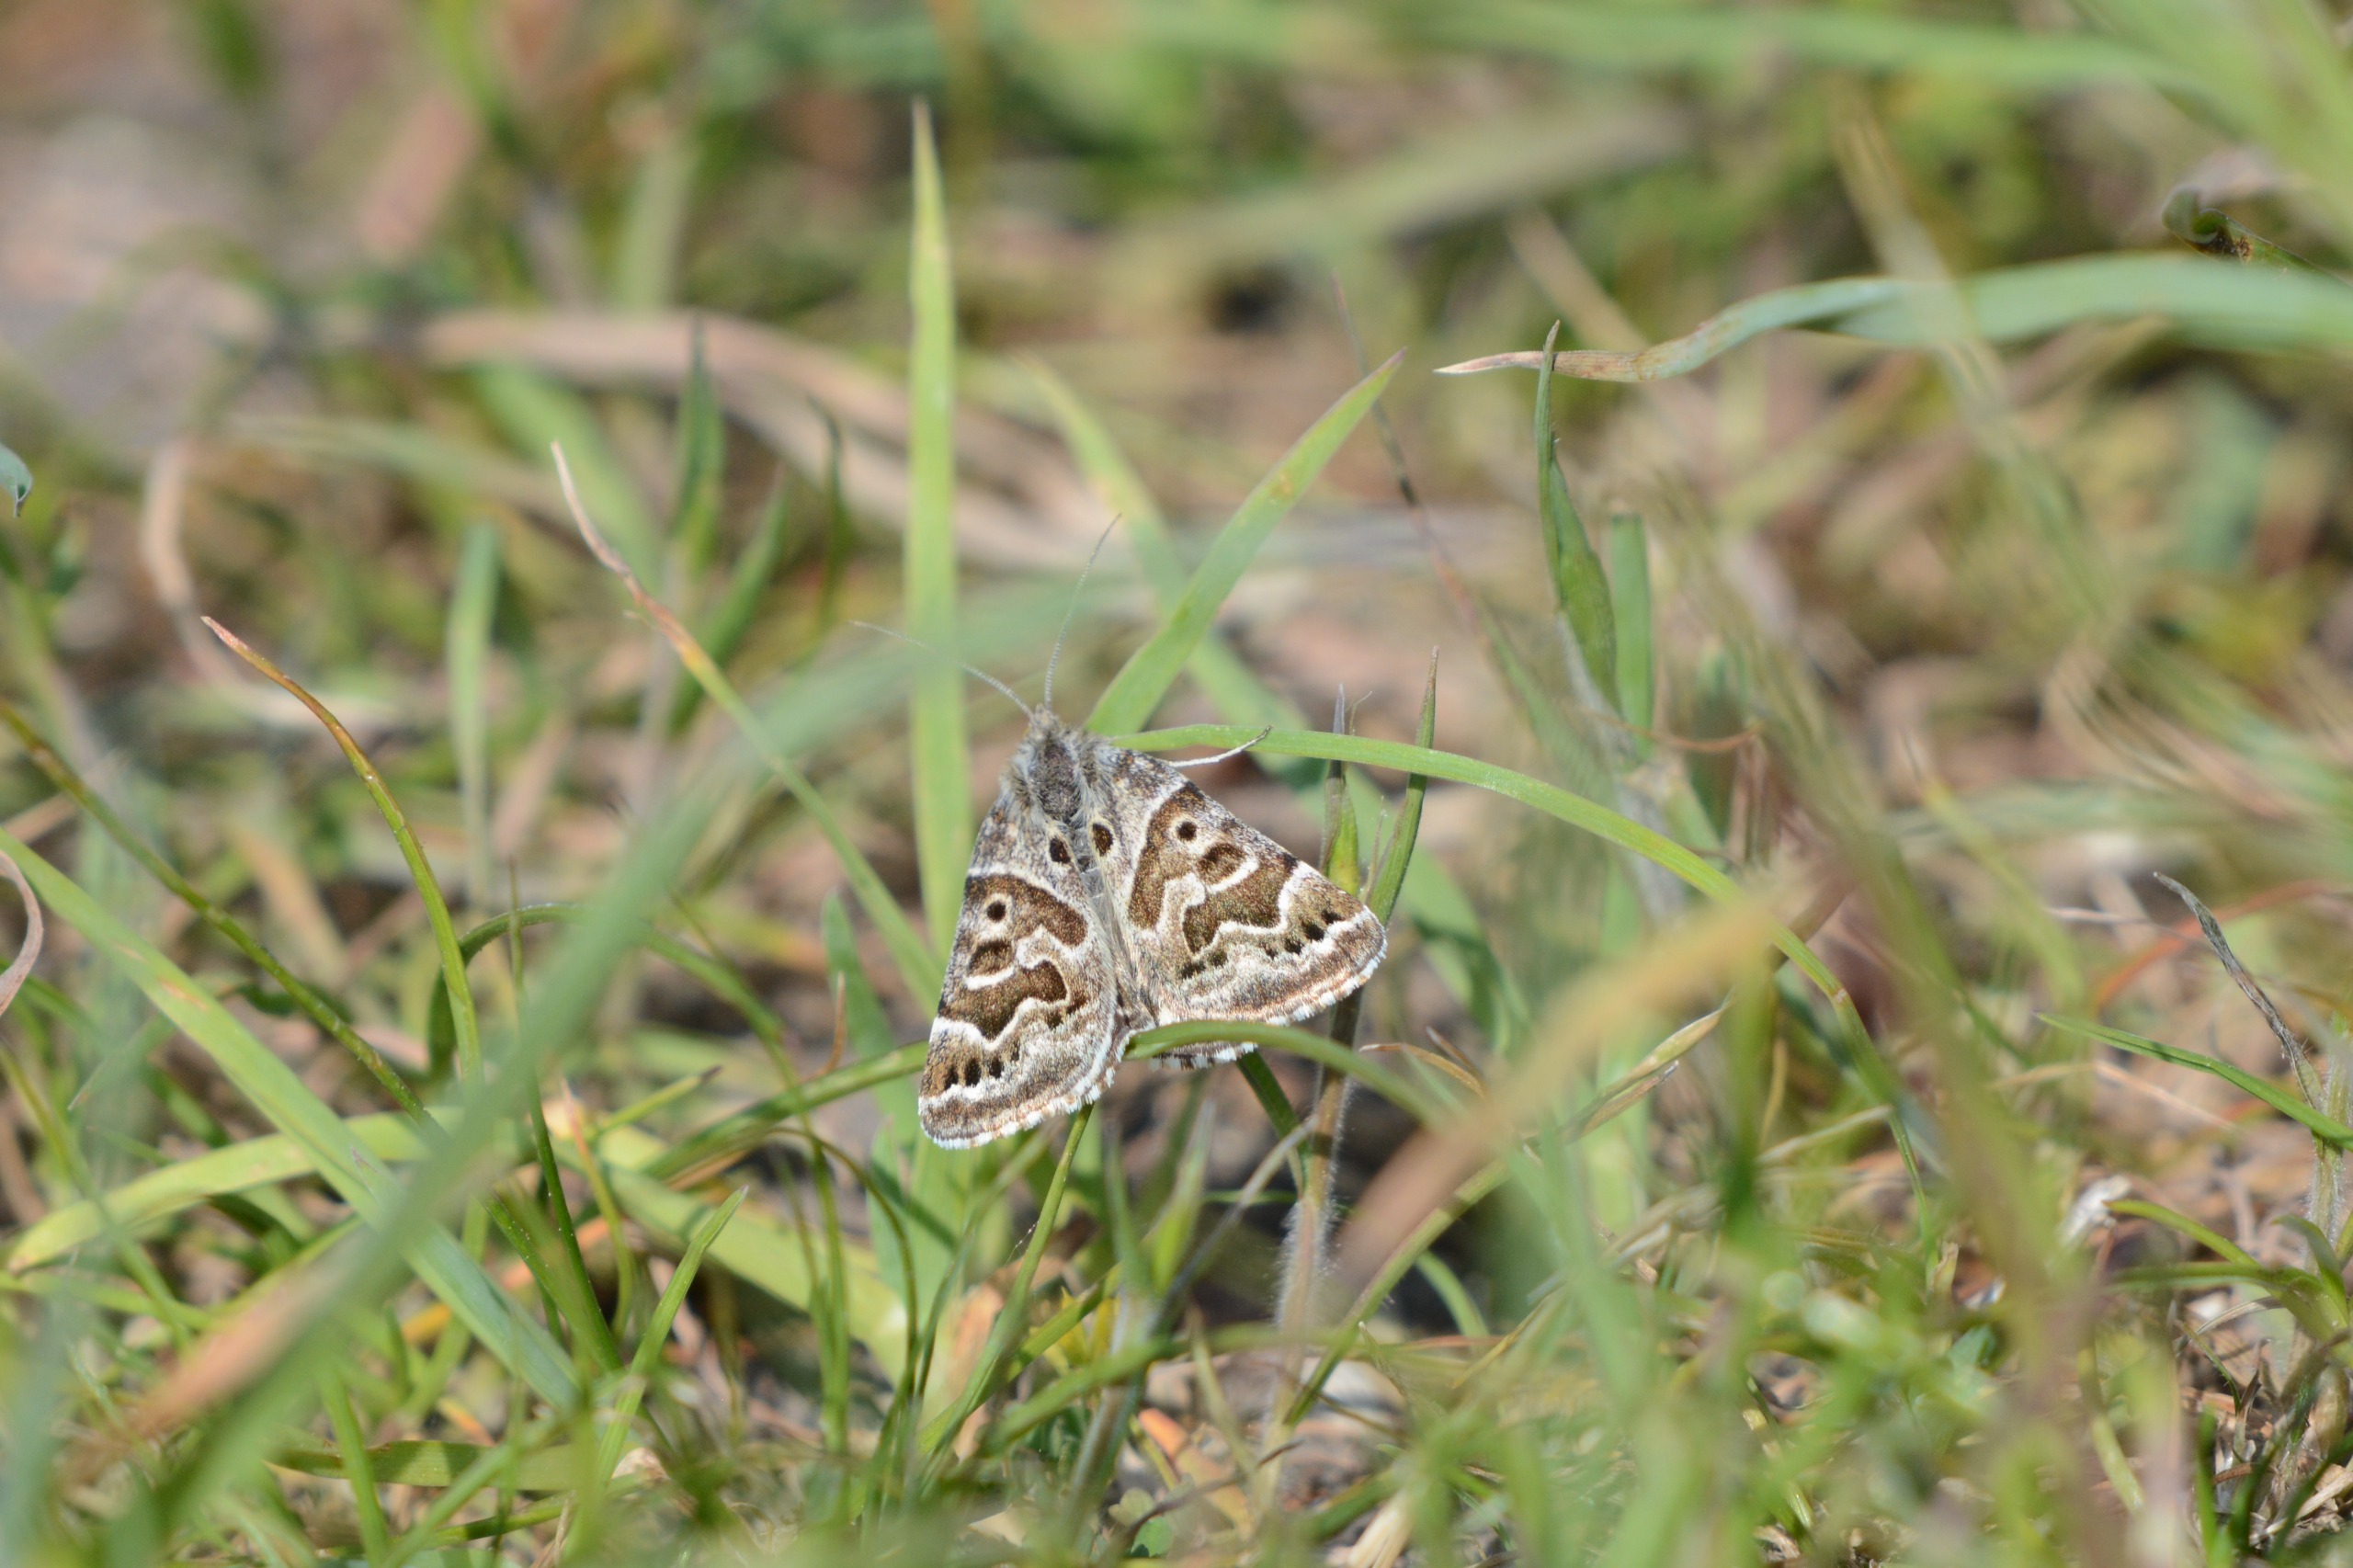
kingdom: Animalia
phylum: Arthropoda
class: Insecta
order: Lepidoptera
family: Erebidae
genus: Callistege
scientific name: Callistege mi
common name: Marmoreret kløverugle
